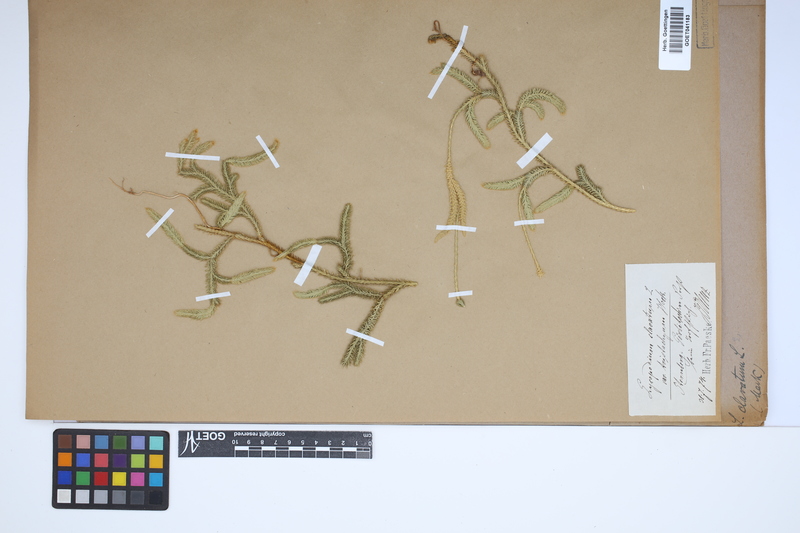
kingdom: Plantae
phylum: Tracheophyta
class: Lycopodiopsida
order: Lycopodiales
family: Lycopodiaceae
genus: Lycopodium
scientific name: Lycopodium clavatum
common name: Stag's-horn clubmoss
